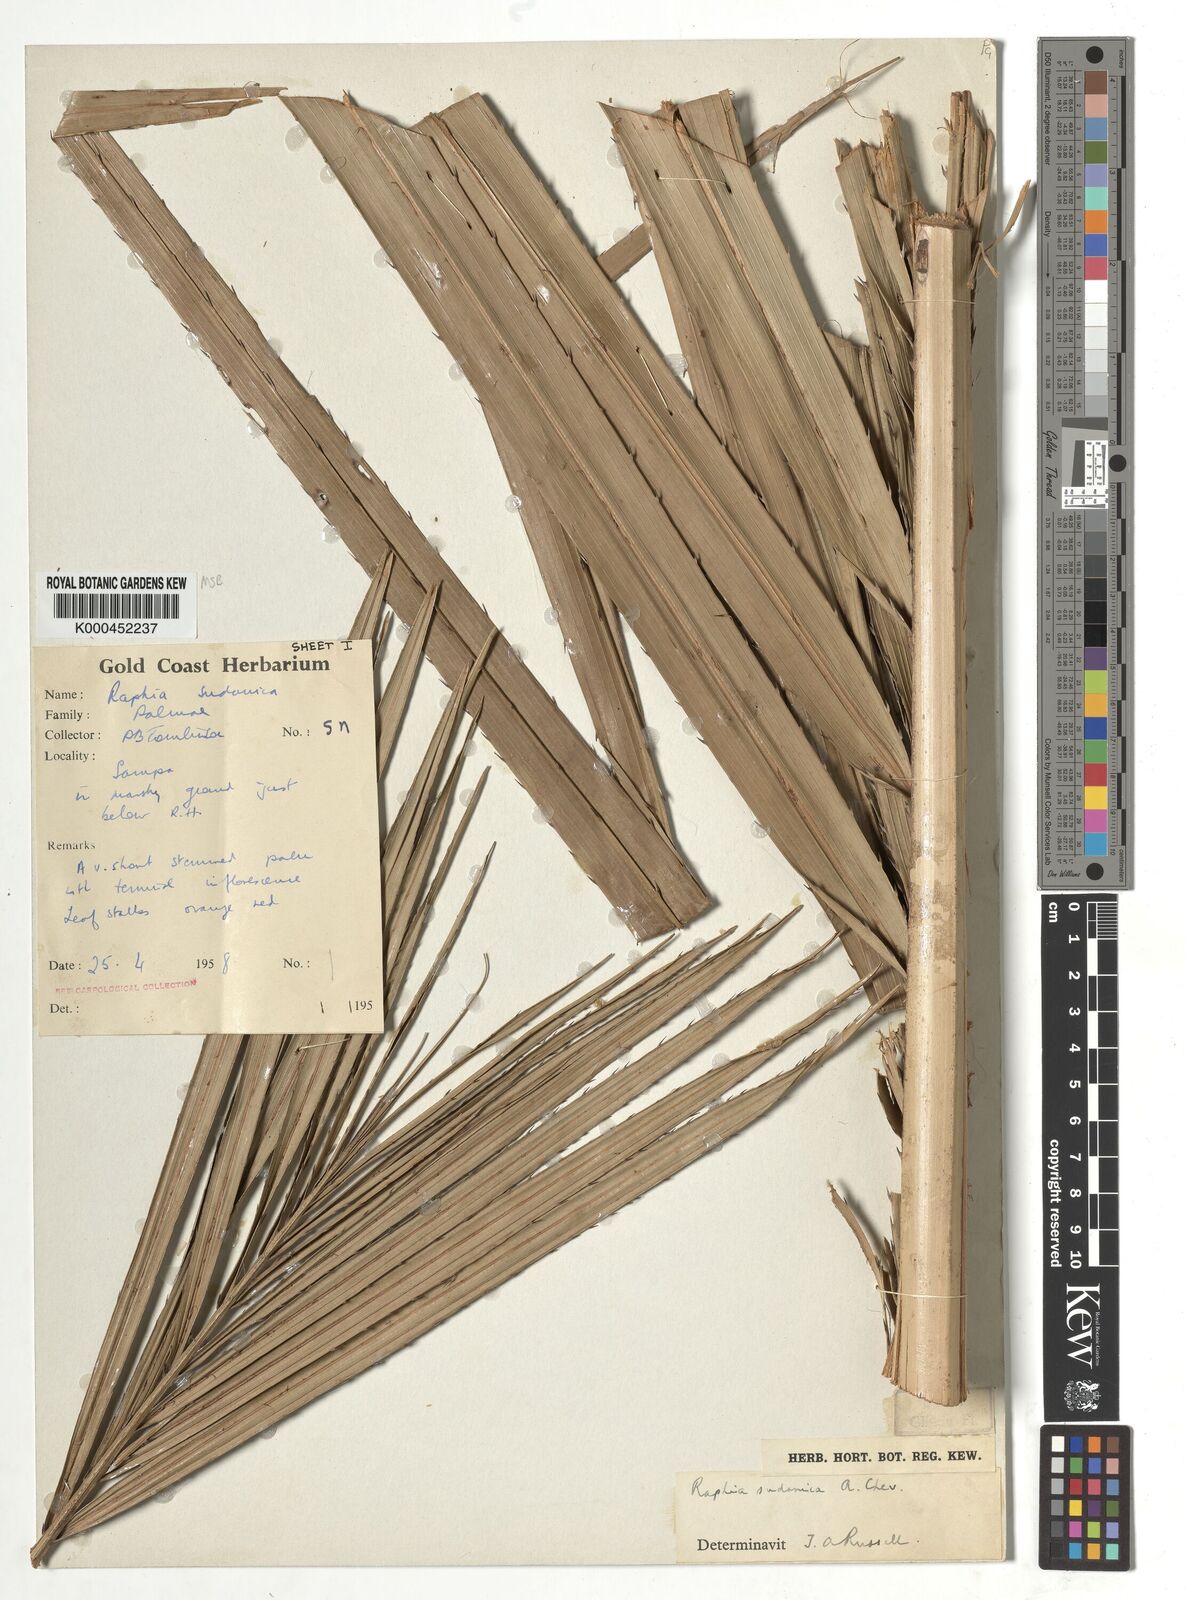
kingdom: Plantae
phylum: Tracheophyta
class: Liliopsida
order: Arecales
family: Arecaceae
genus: Raphia
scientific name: Raphia sudanica
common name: Northern raphia
